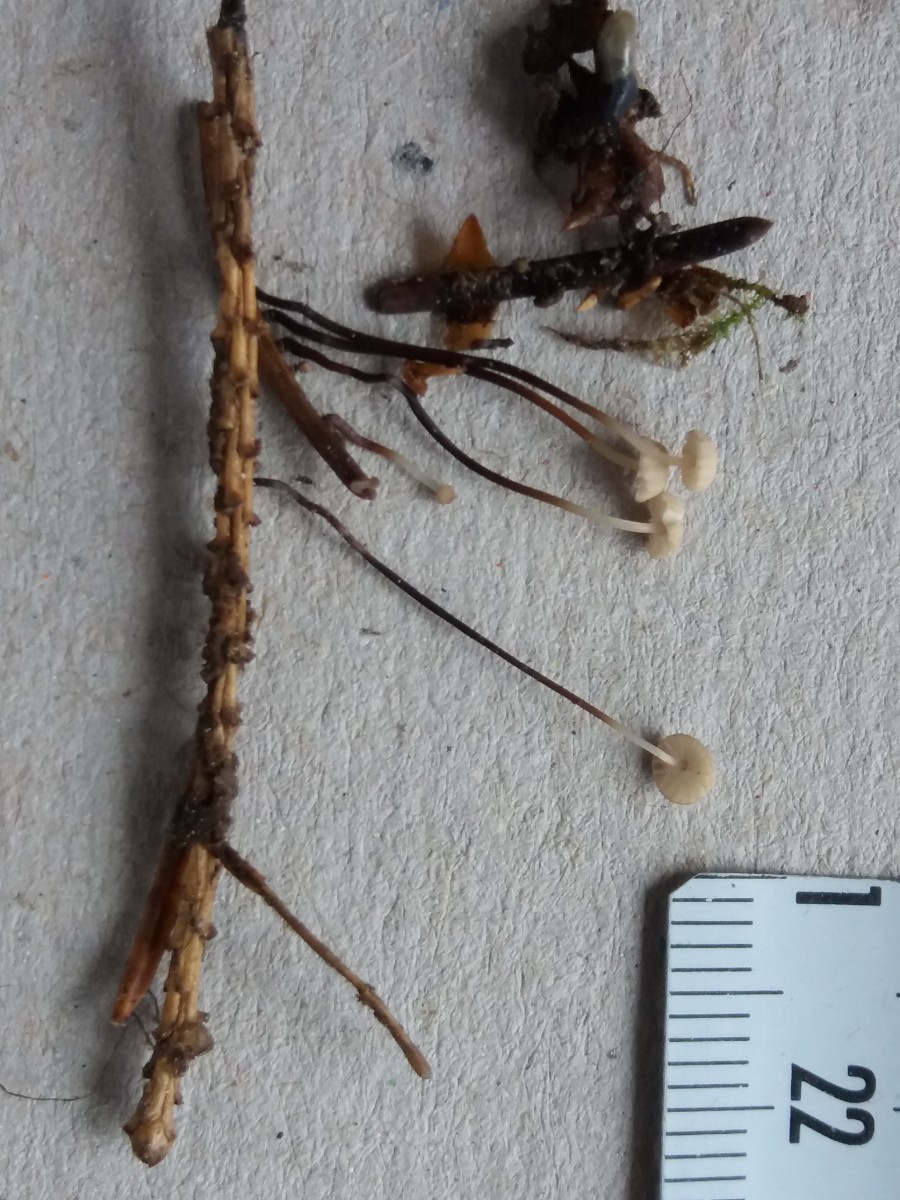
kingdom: Fungi
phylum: Basidiomycota
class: Agaricomycetes
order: Agaricales
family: Marasmiaceae
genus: Marasmius
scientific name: Marasmius wettsteinii
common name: Wettsteins bruskhat
